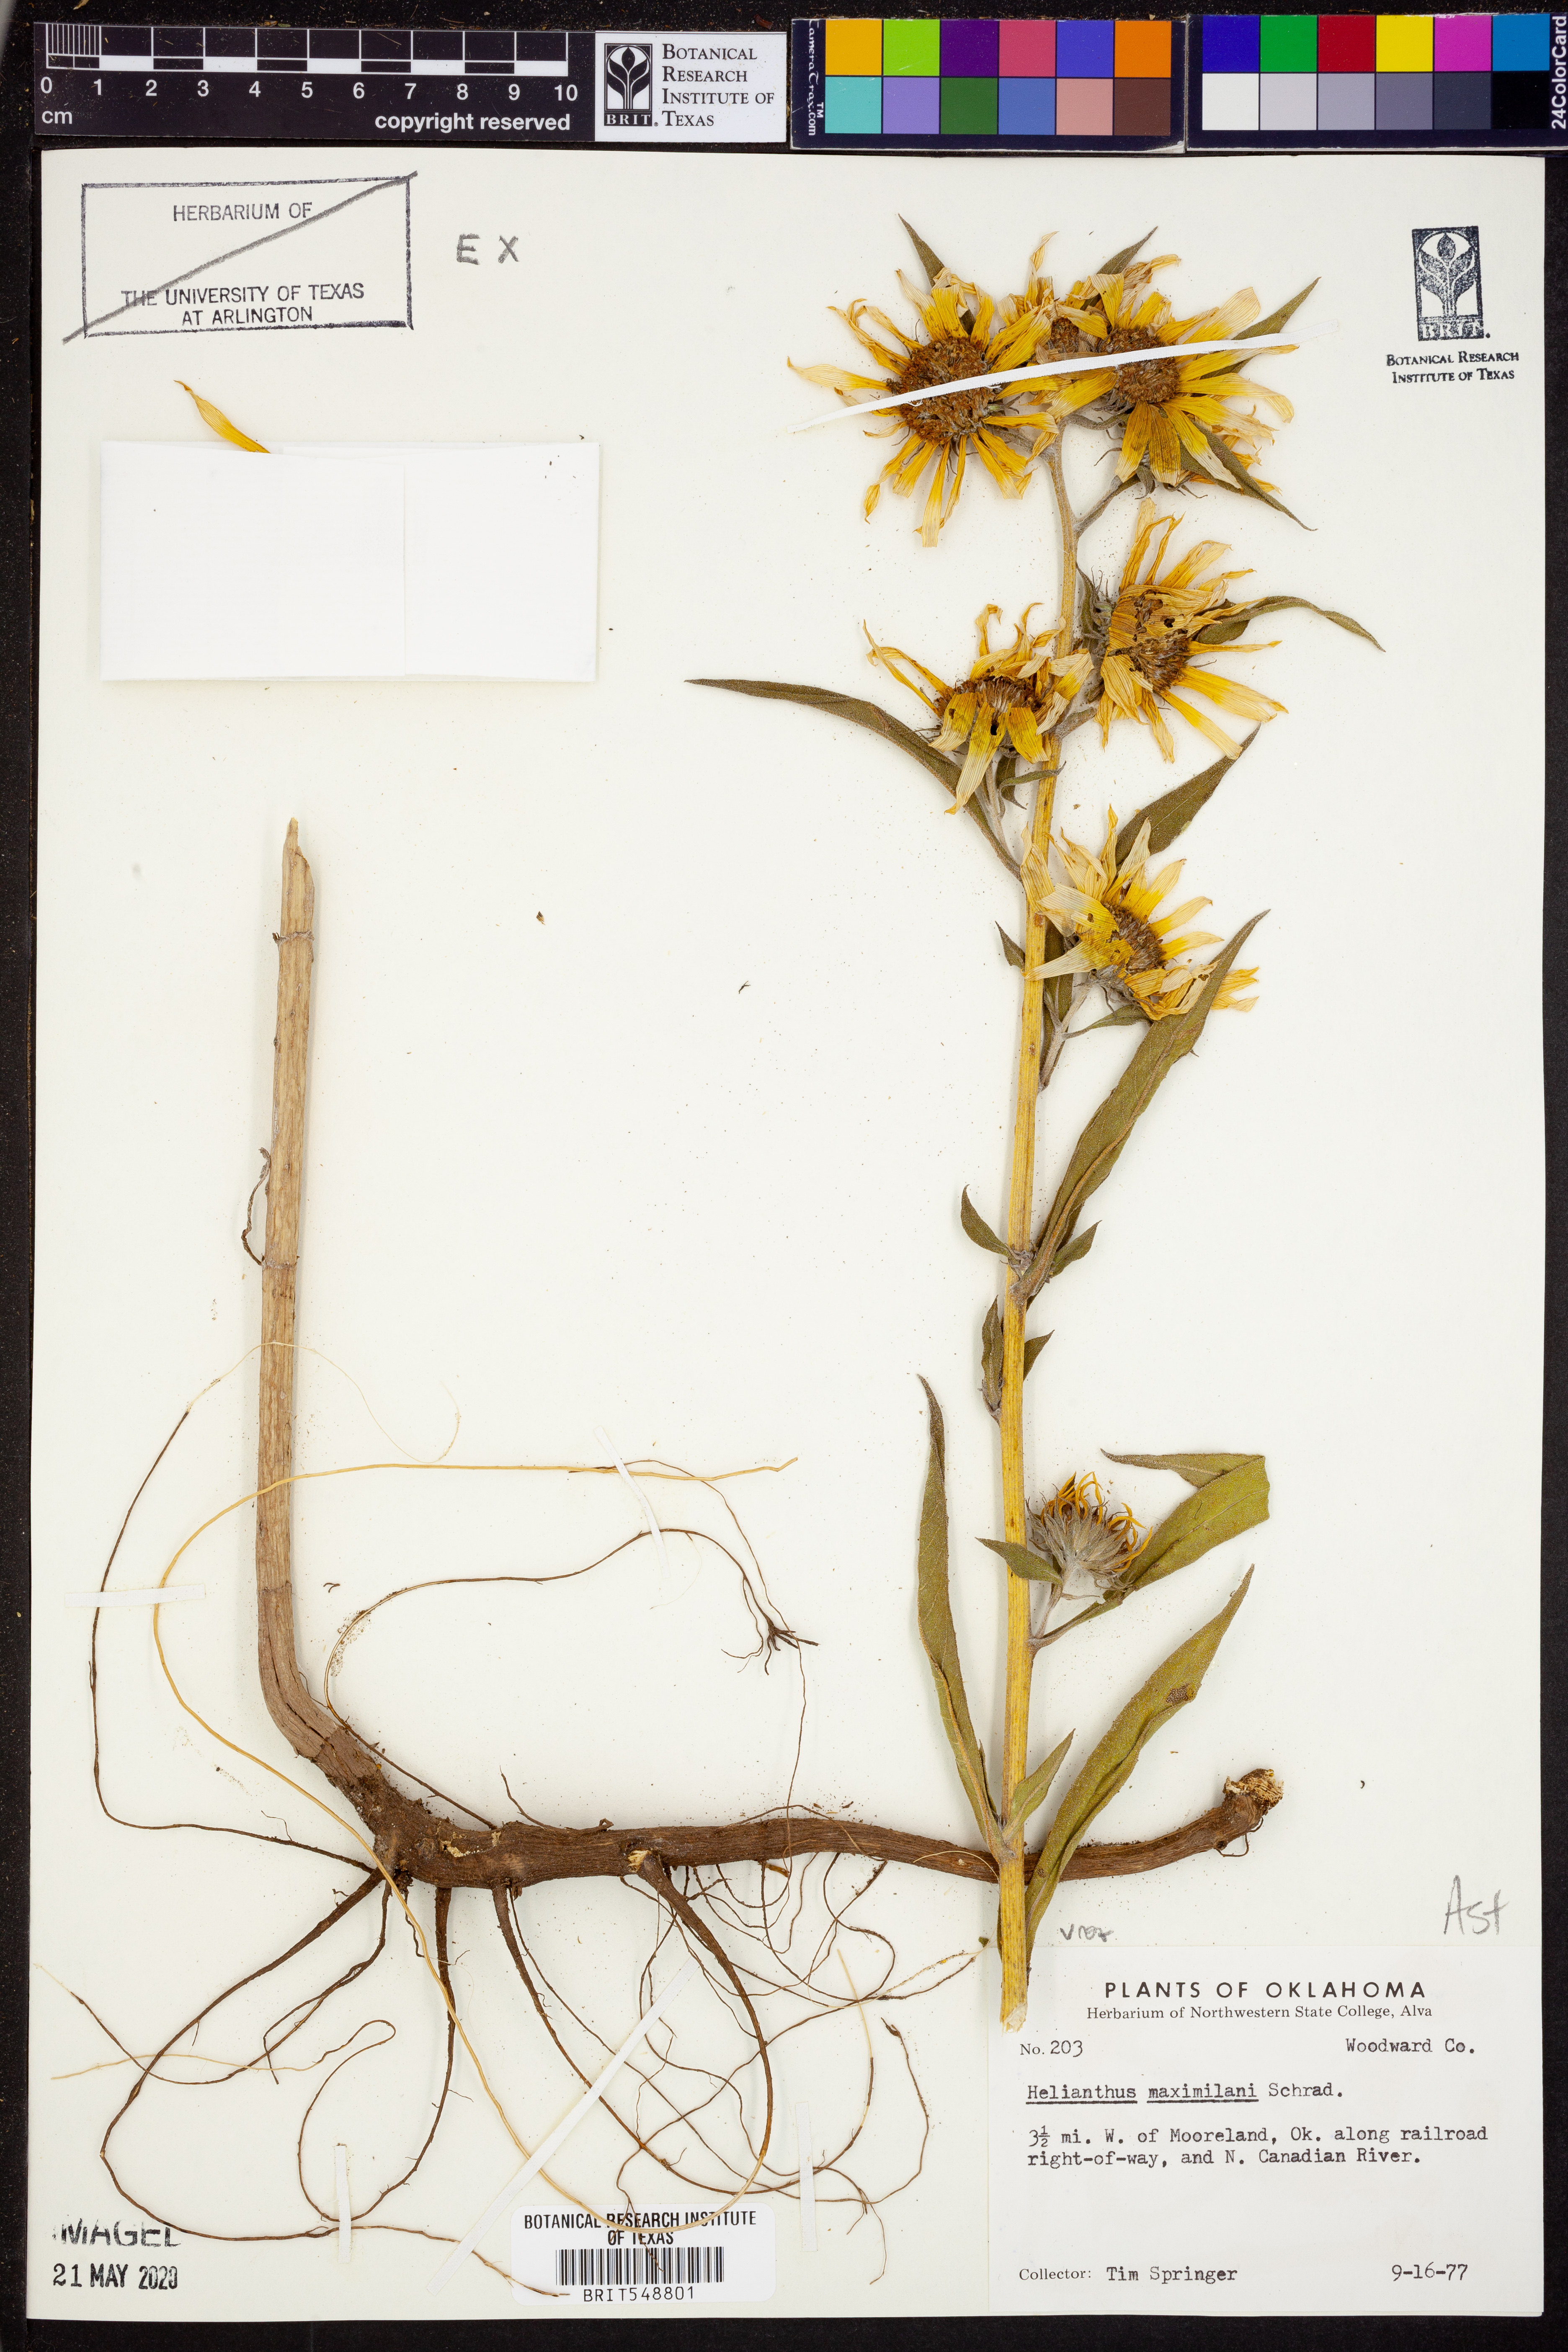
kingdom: Plantae
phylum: Tracheophyta
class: Magnoliopsida
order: Asterales
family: Asteraceae
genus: Helianthus
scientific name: Helianthus maximiliani
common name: Maximilian's sunflower
